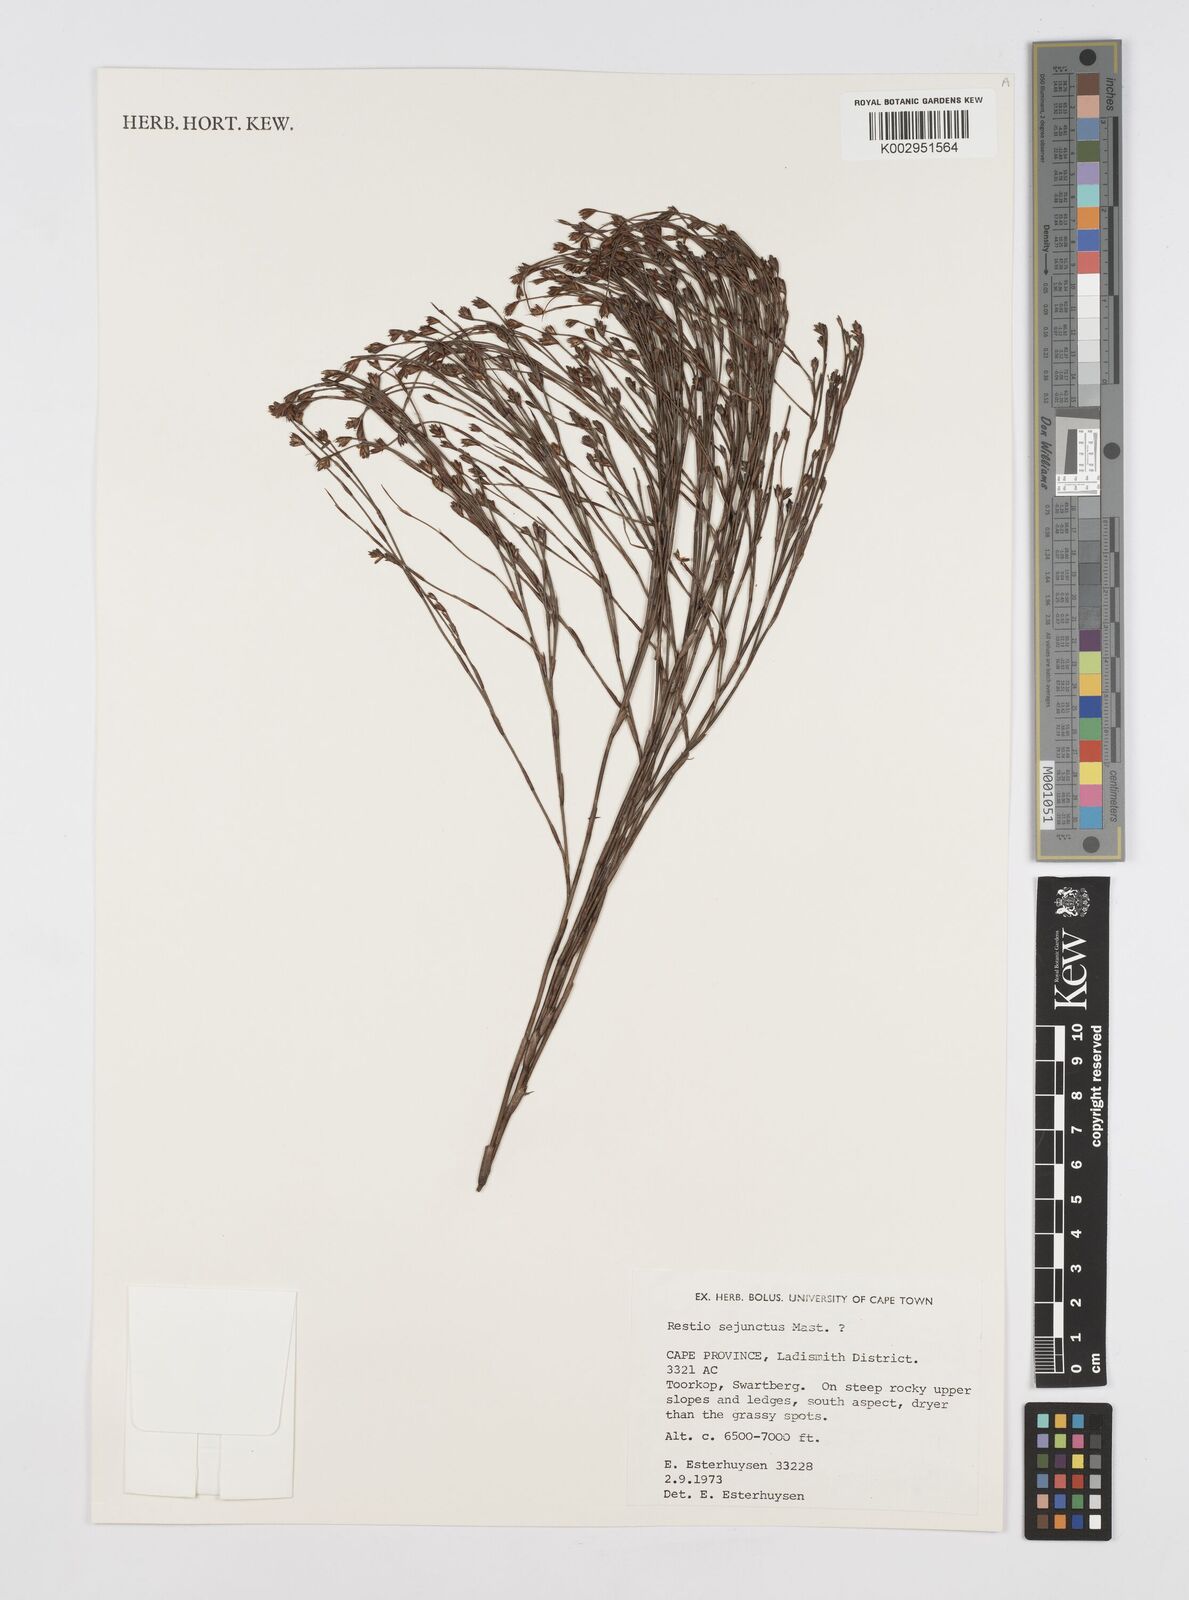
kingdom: Plantae
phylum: Tracheophyta
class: Liliopsida
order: Poales
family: Restionaceae
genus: Restio
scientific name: Restio sejunctus
